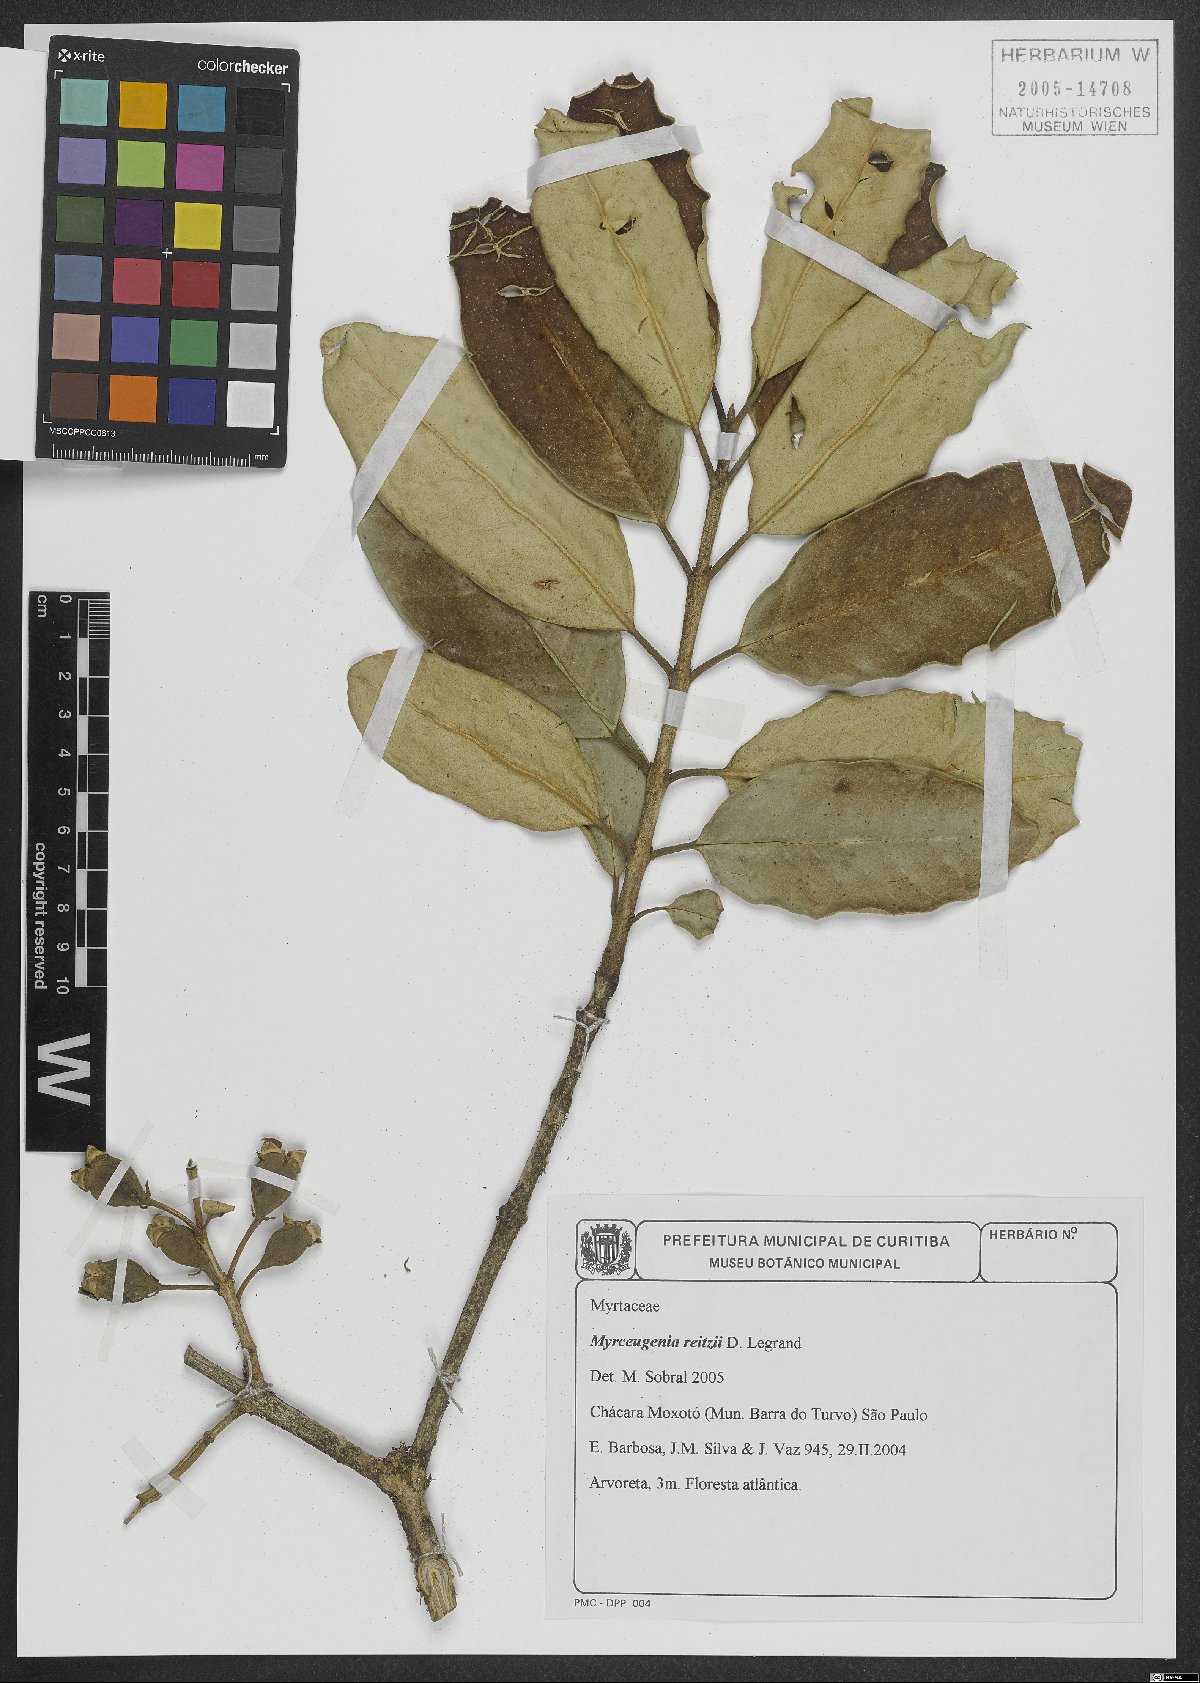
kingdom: Plantae
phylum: Tracheophyta
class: Magnoliopsida
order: Myrtales
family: Myrtaceae
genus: Myrceugenia
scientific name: Myrceugenia reitzii
